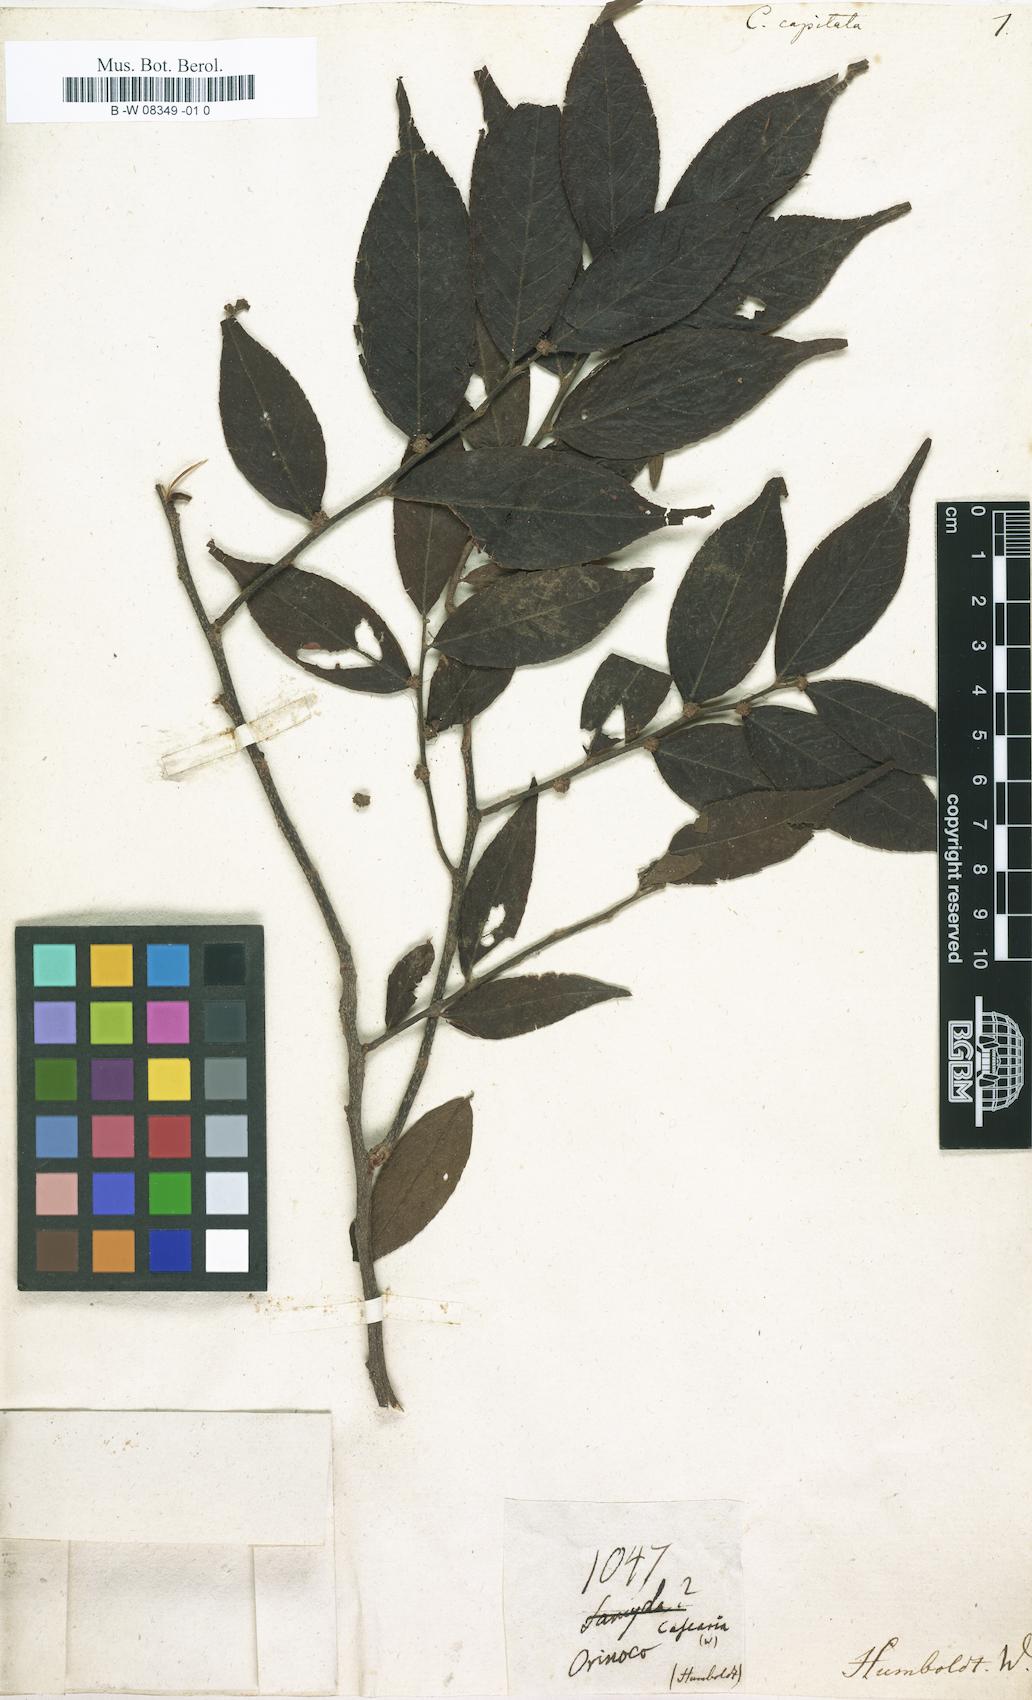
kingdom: Plantae
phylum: Tracheophyta
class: Magnoliopsida
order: Malpighiales
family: Salicaceae
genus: Casearia
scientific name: Casearia arborea
